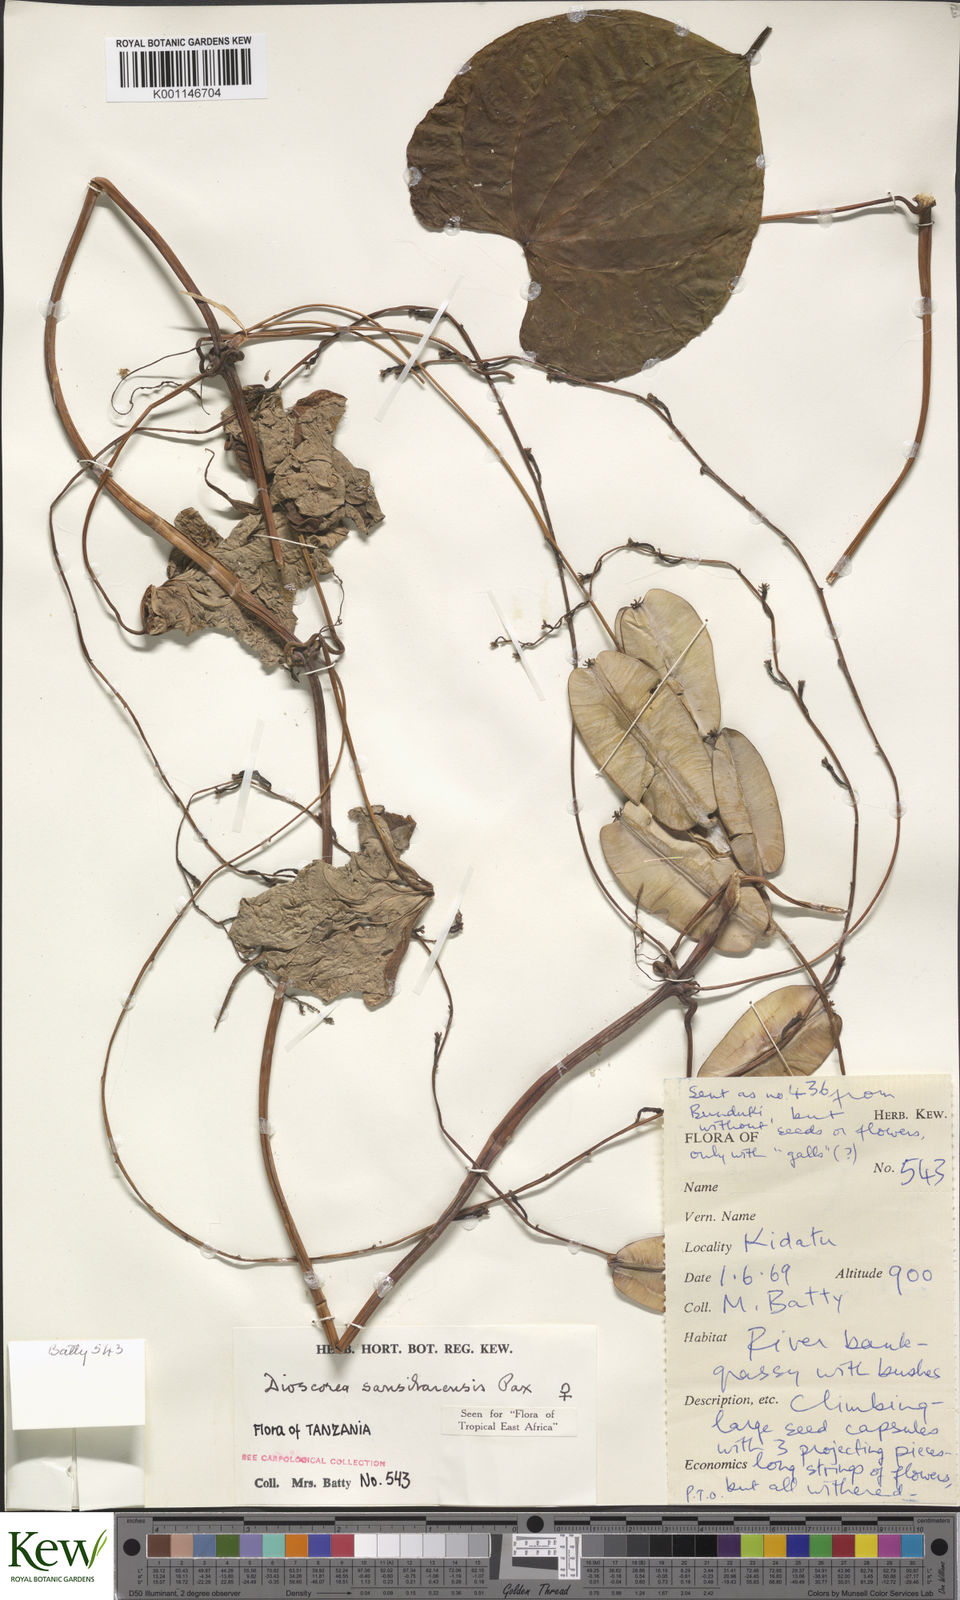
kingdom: Plantae
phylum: Tracheophyta
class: Liliopsida
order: Dioscoreales
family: Dioscoreaceae
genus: Dioscorea
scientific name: Dioscorea sansibarensis
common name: Zanzibar yam
